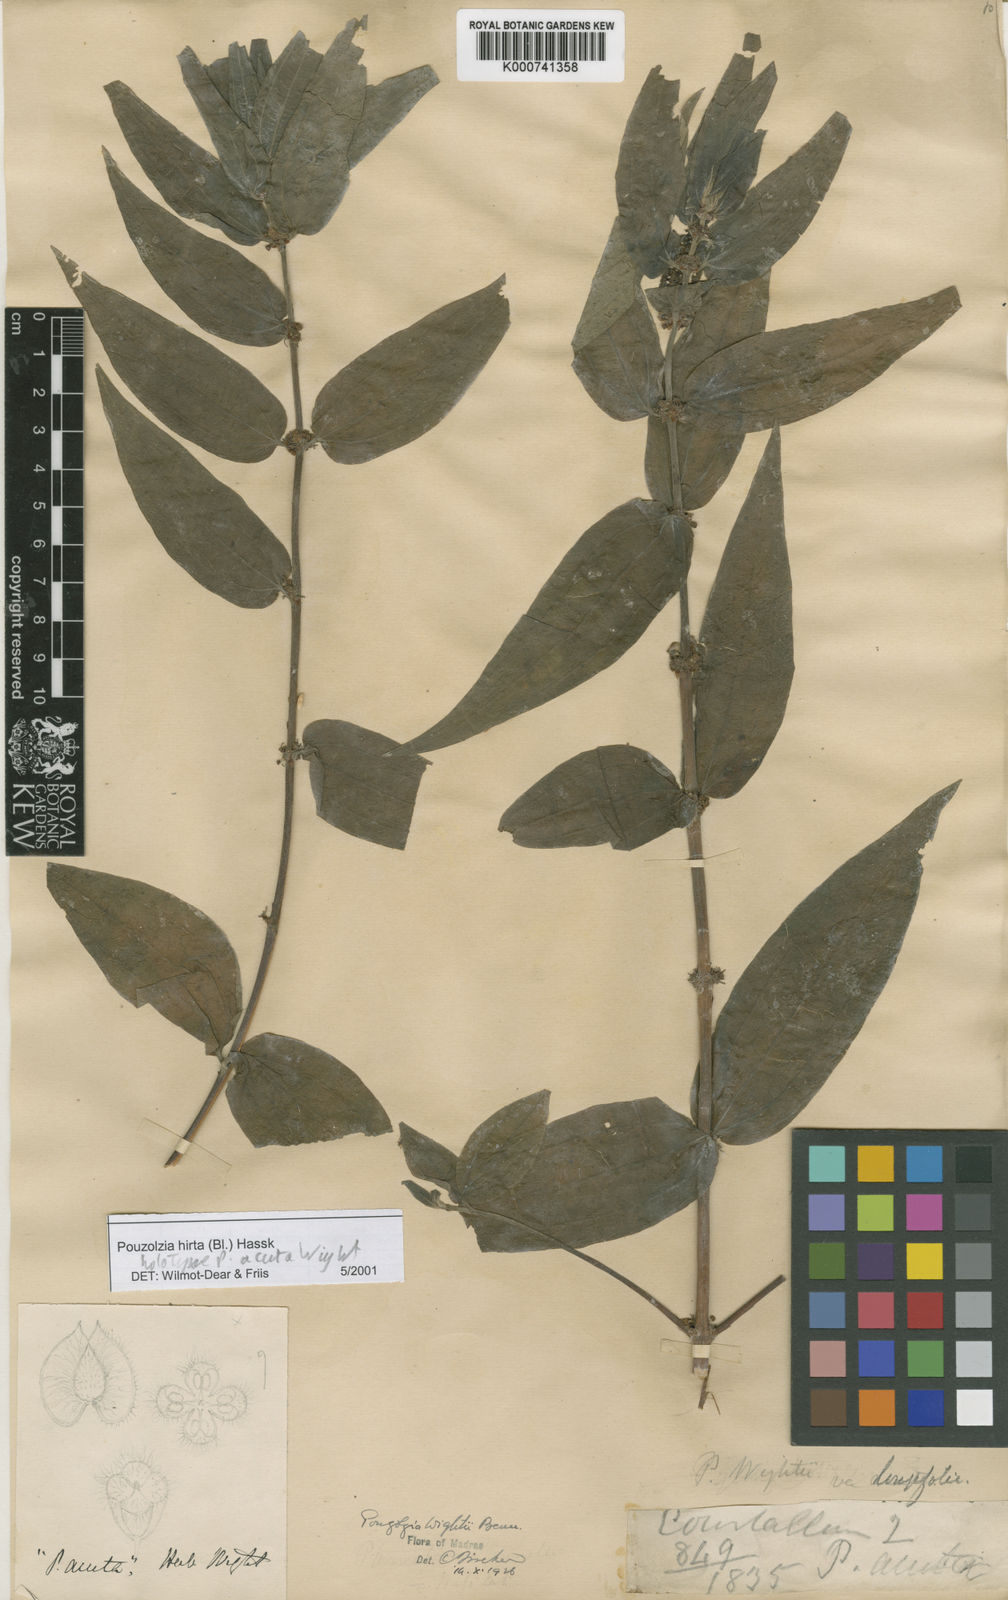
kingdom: Plantae
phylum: Tracheophyta
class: Magnoliopsida
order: Rosales
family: Urticaceae
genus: Gonostegia
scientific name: Gonostegia triandra
